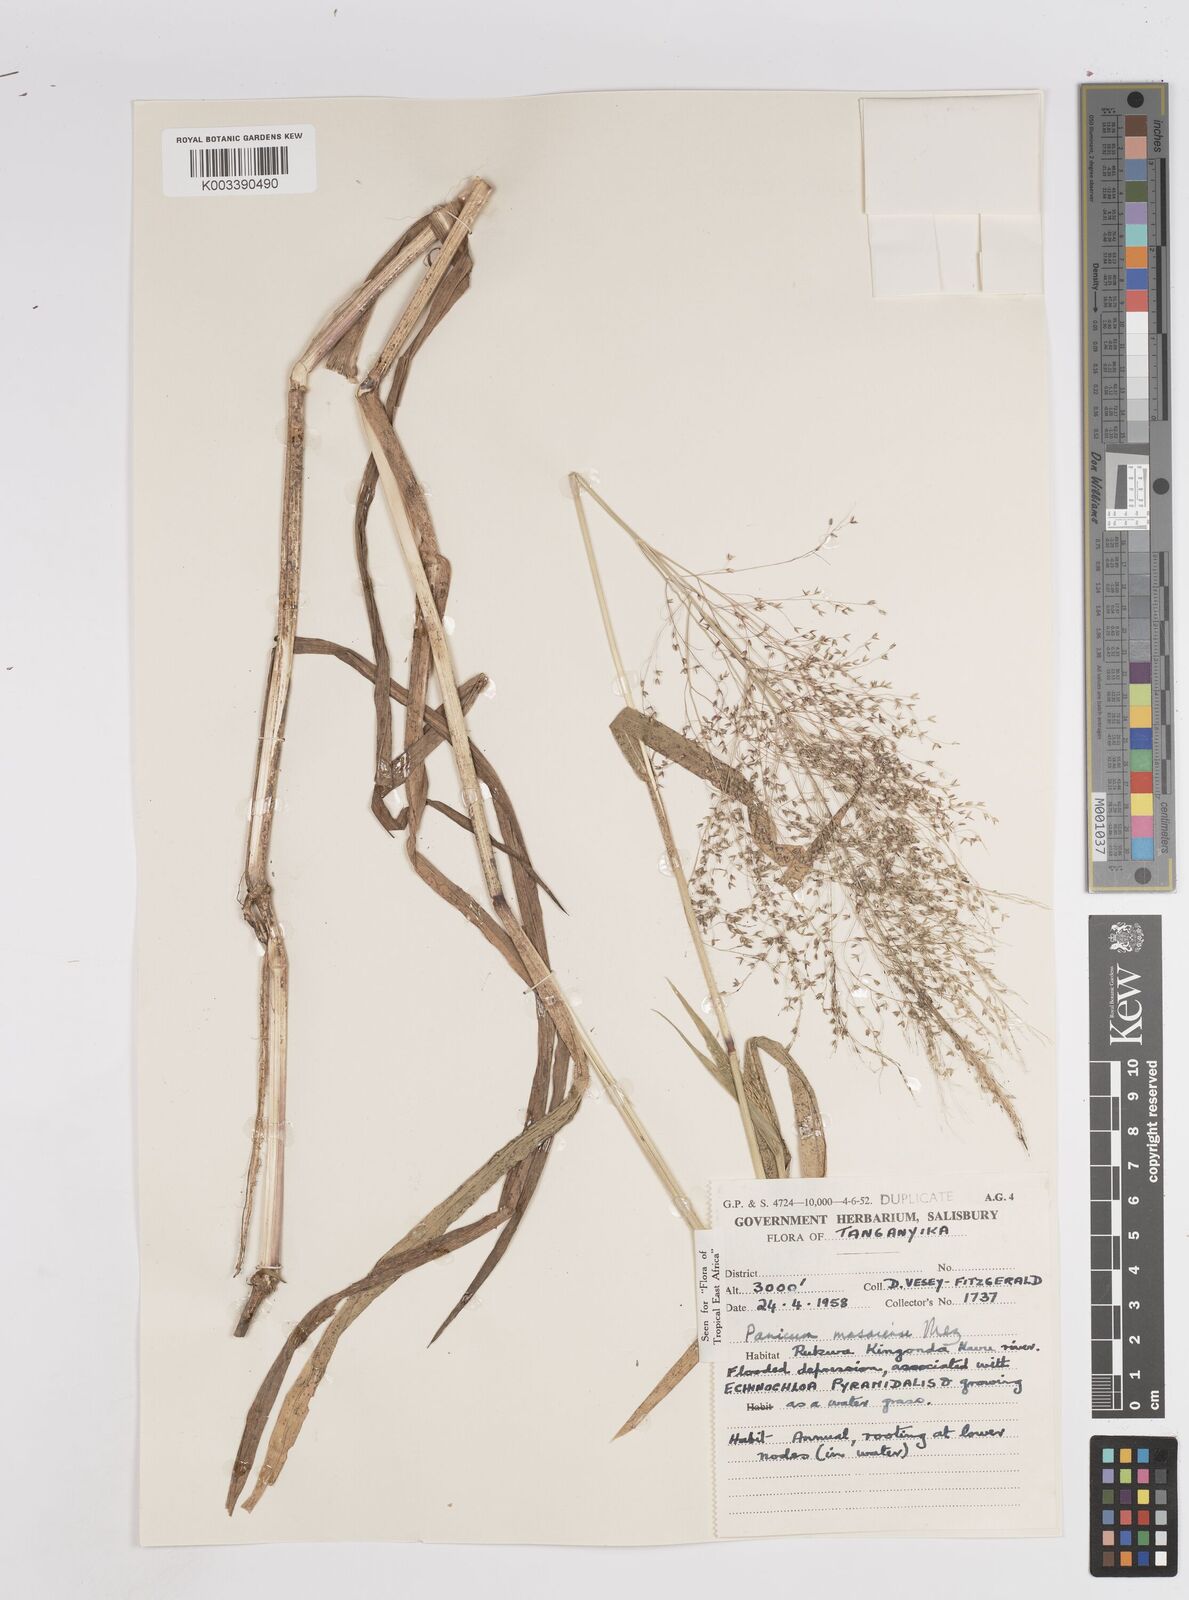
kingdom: Plantae
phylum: Tracheophyta
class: Liliopsida
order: Poales
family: Poaceae
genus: Panicum
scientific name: Panicum massaiense
